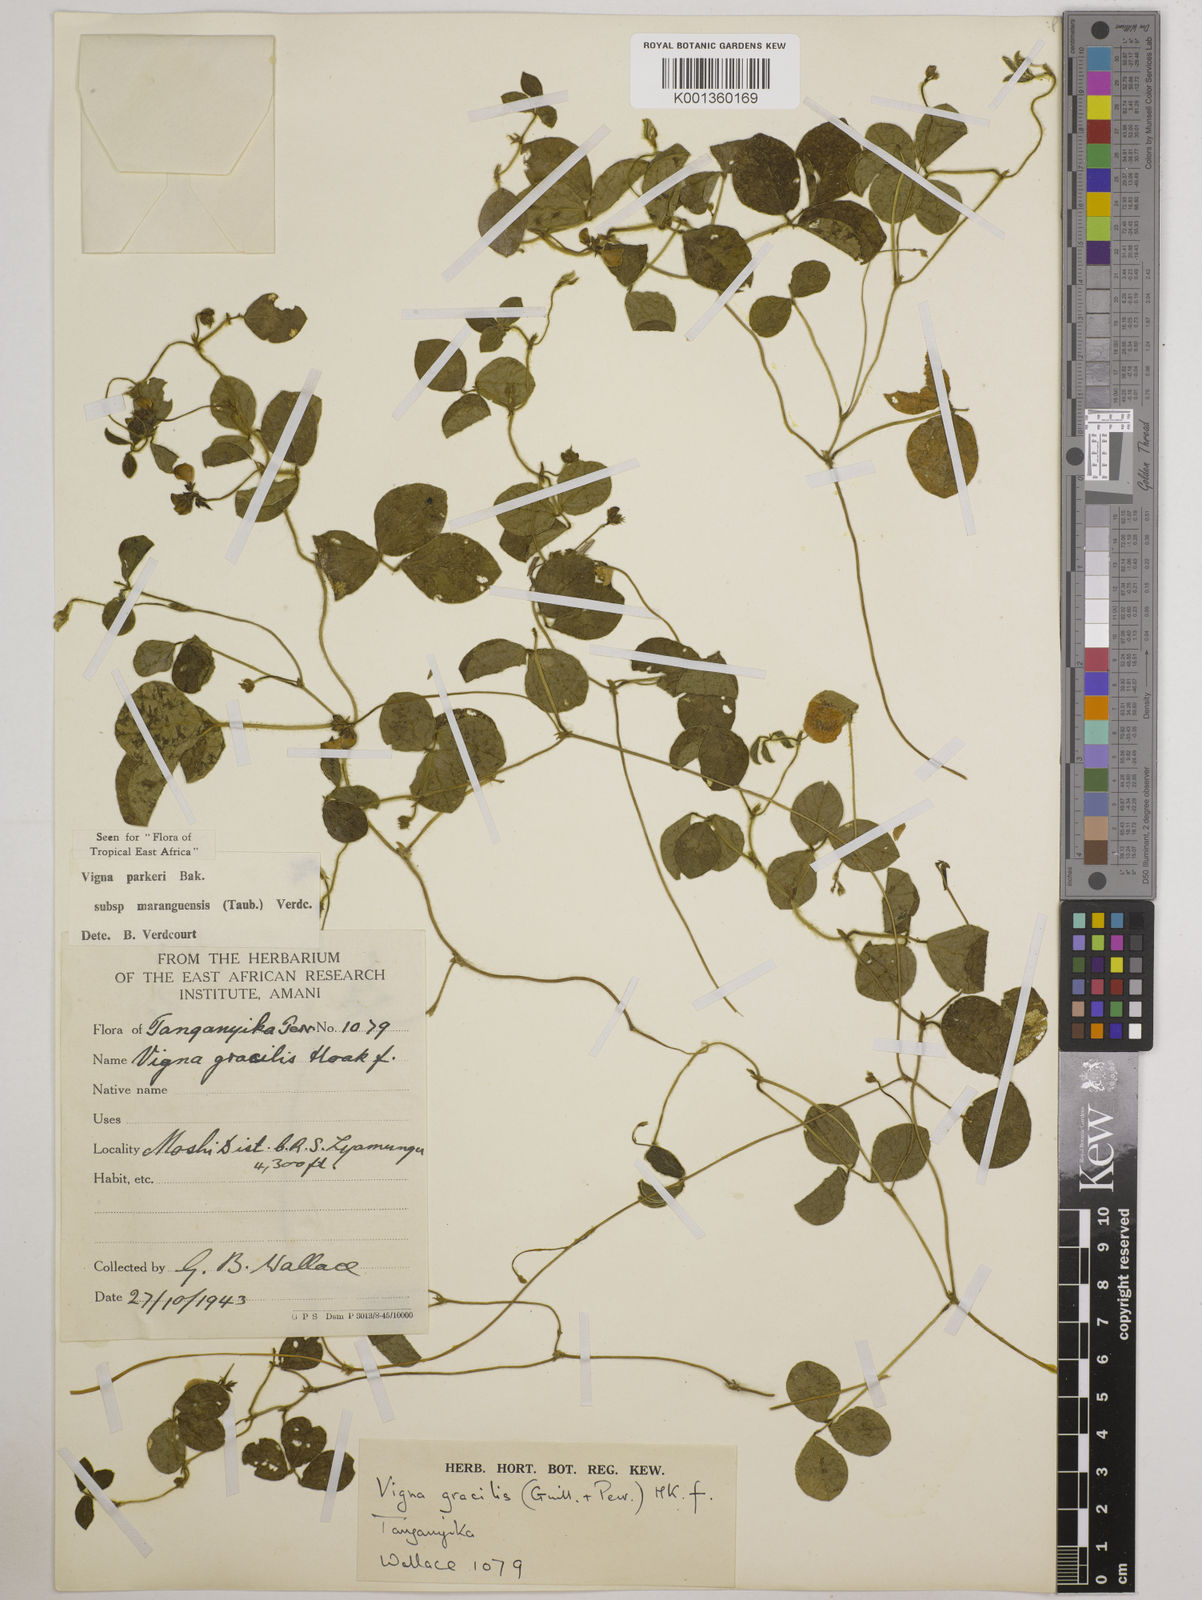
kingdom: Plantae
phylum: Tracheophyta
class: Magnoliopsida
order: Fabales
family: Fabaceae
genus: Vigna
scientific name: Vigna
